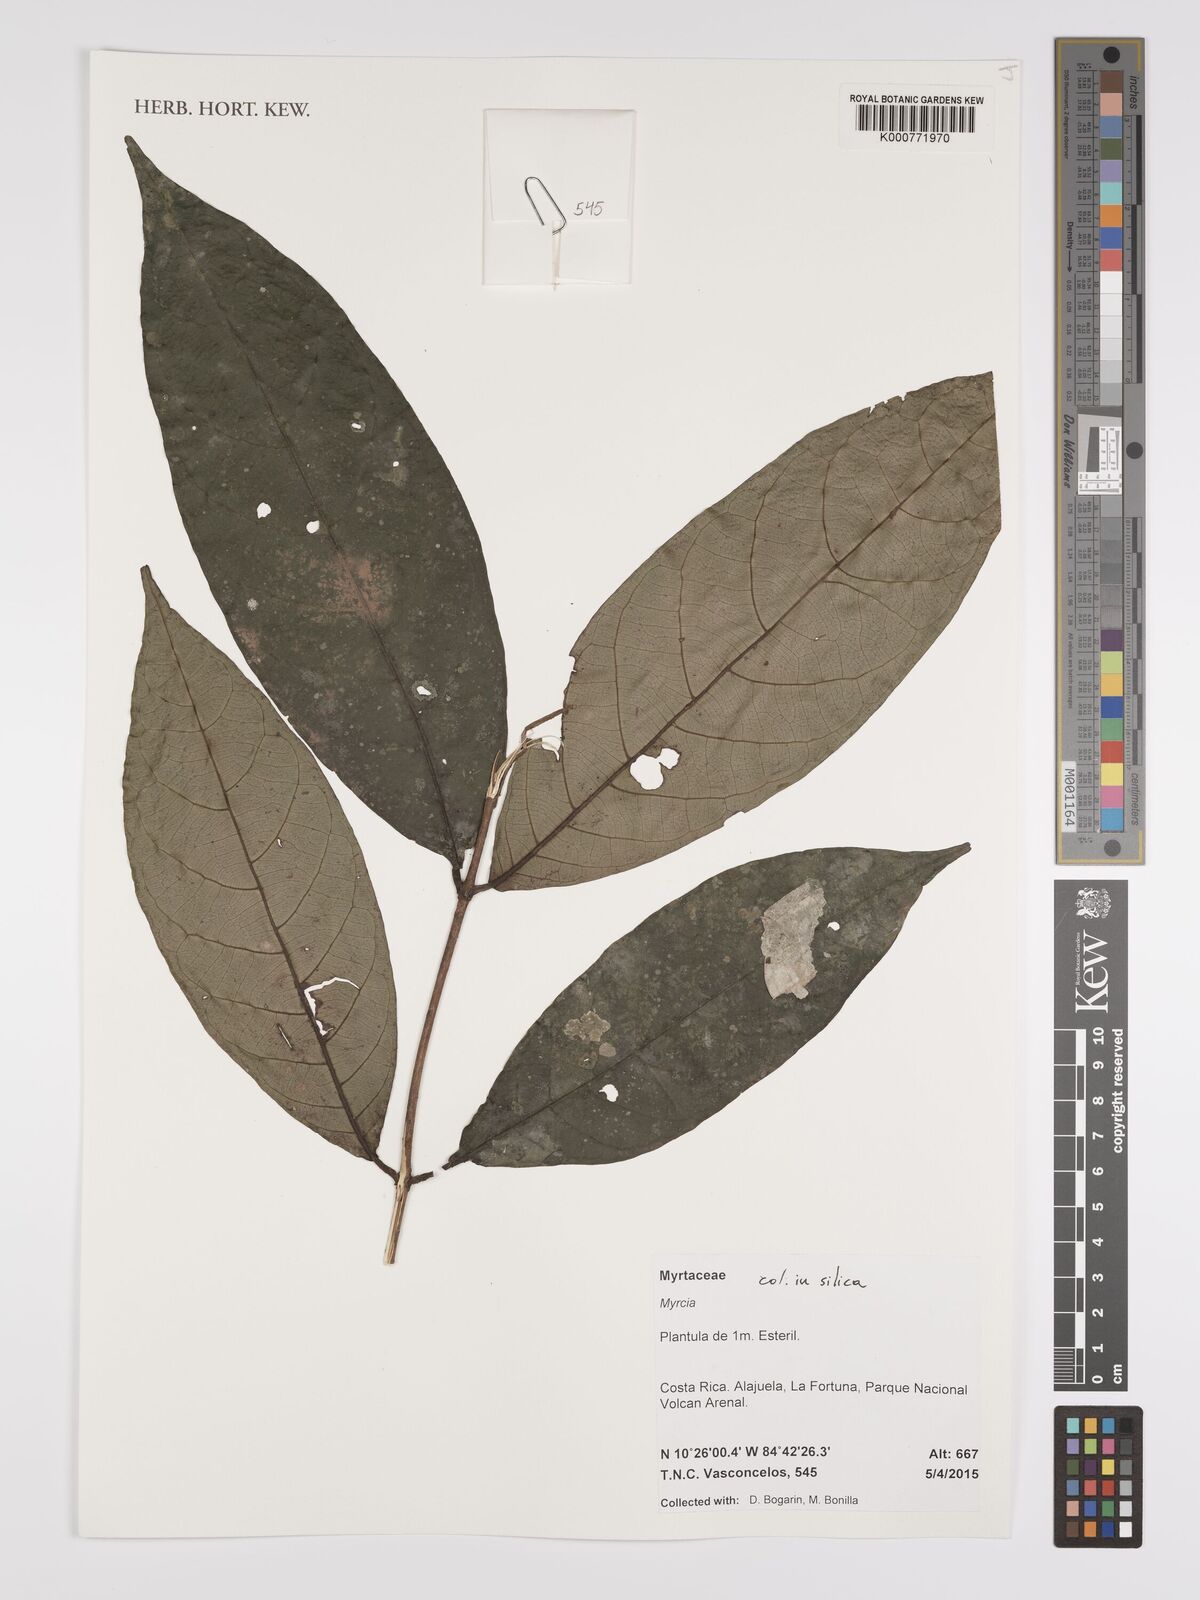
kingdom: Plantae
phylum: Tracheophyta
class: Magnoliopsida
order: Myrtales
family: Myrtaceae
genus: Myrcia
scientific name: Myrcia
